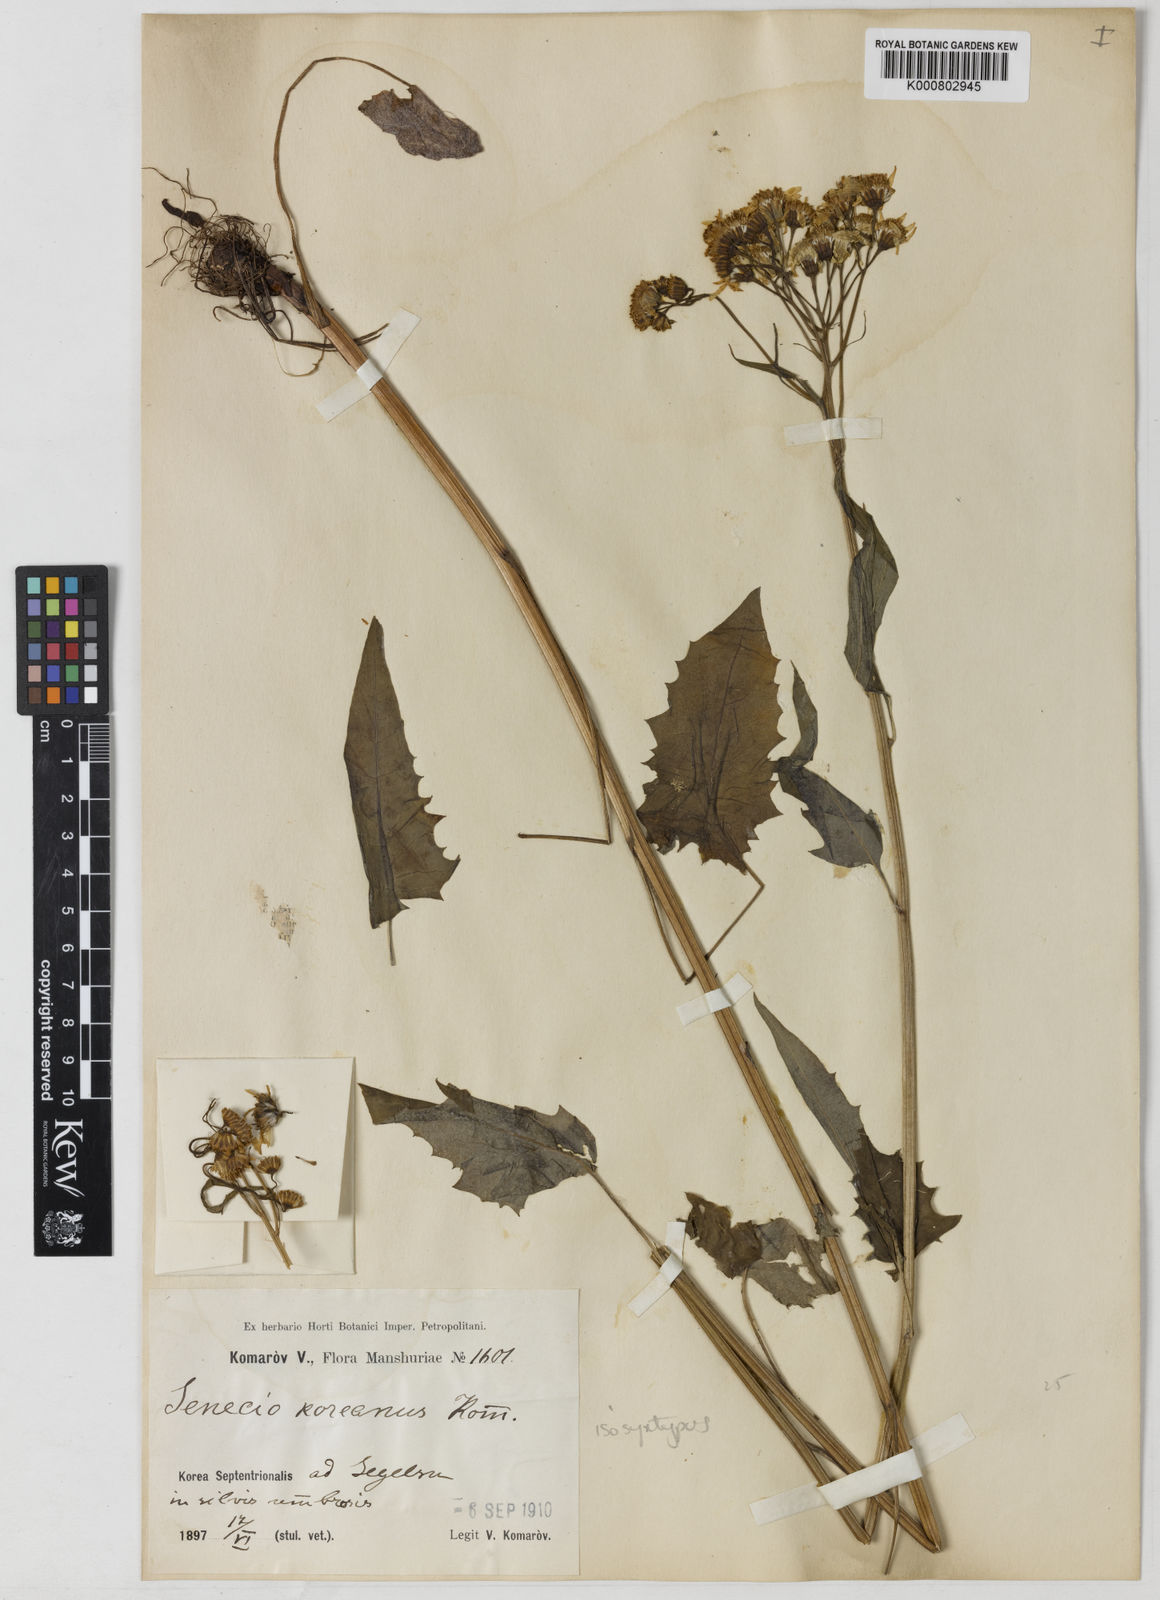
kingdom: Plantae
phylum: Tracheophyta
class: Magnoliopsida
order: Asterales
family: Asteraceae
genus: Tephroseris
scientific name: Tephroseris koreana
